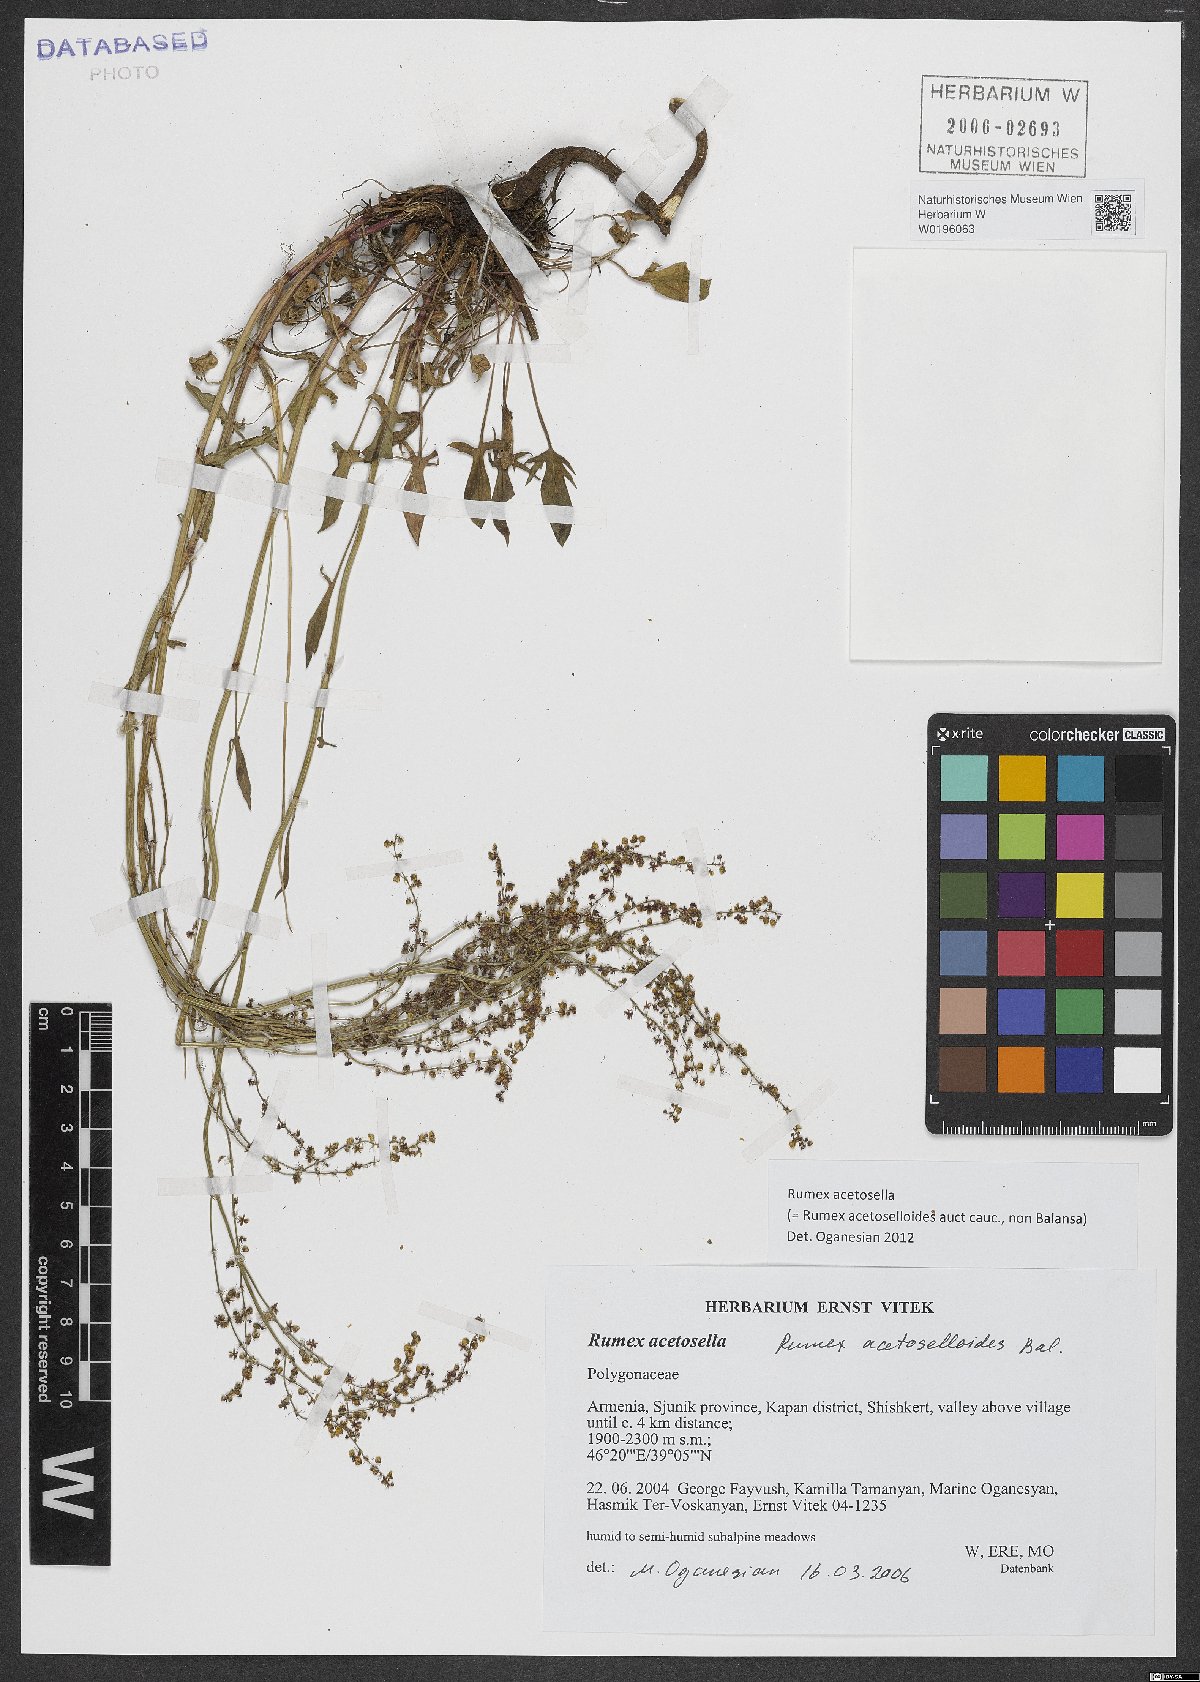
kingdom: Plantae
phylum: Tracheophyta
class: Magnoliopsida
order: Caryophyllales
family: Polygonaceae
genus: Rumex
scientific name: Rumex acetosella
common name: Common sheep sorrel
